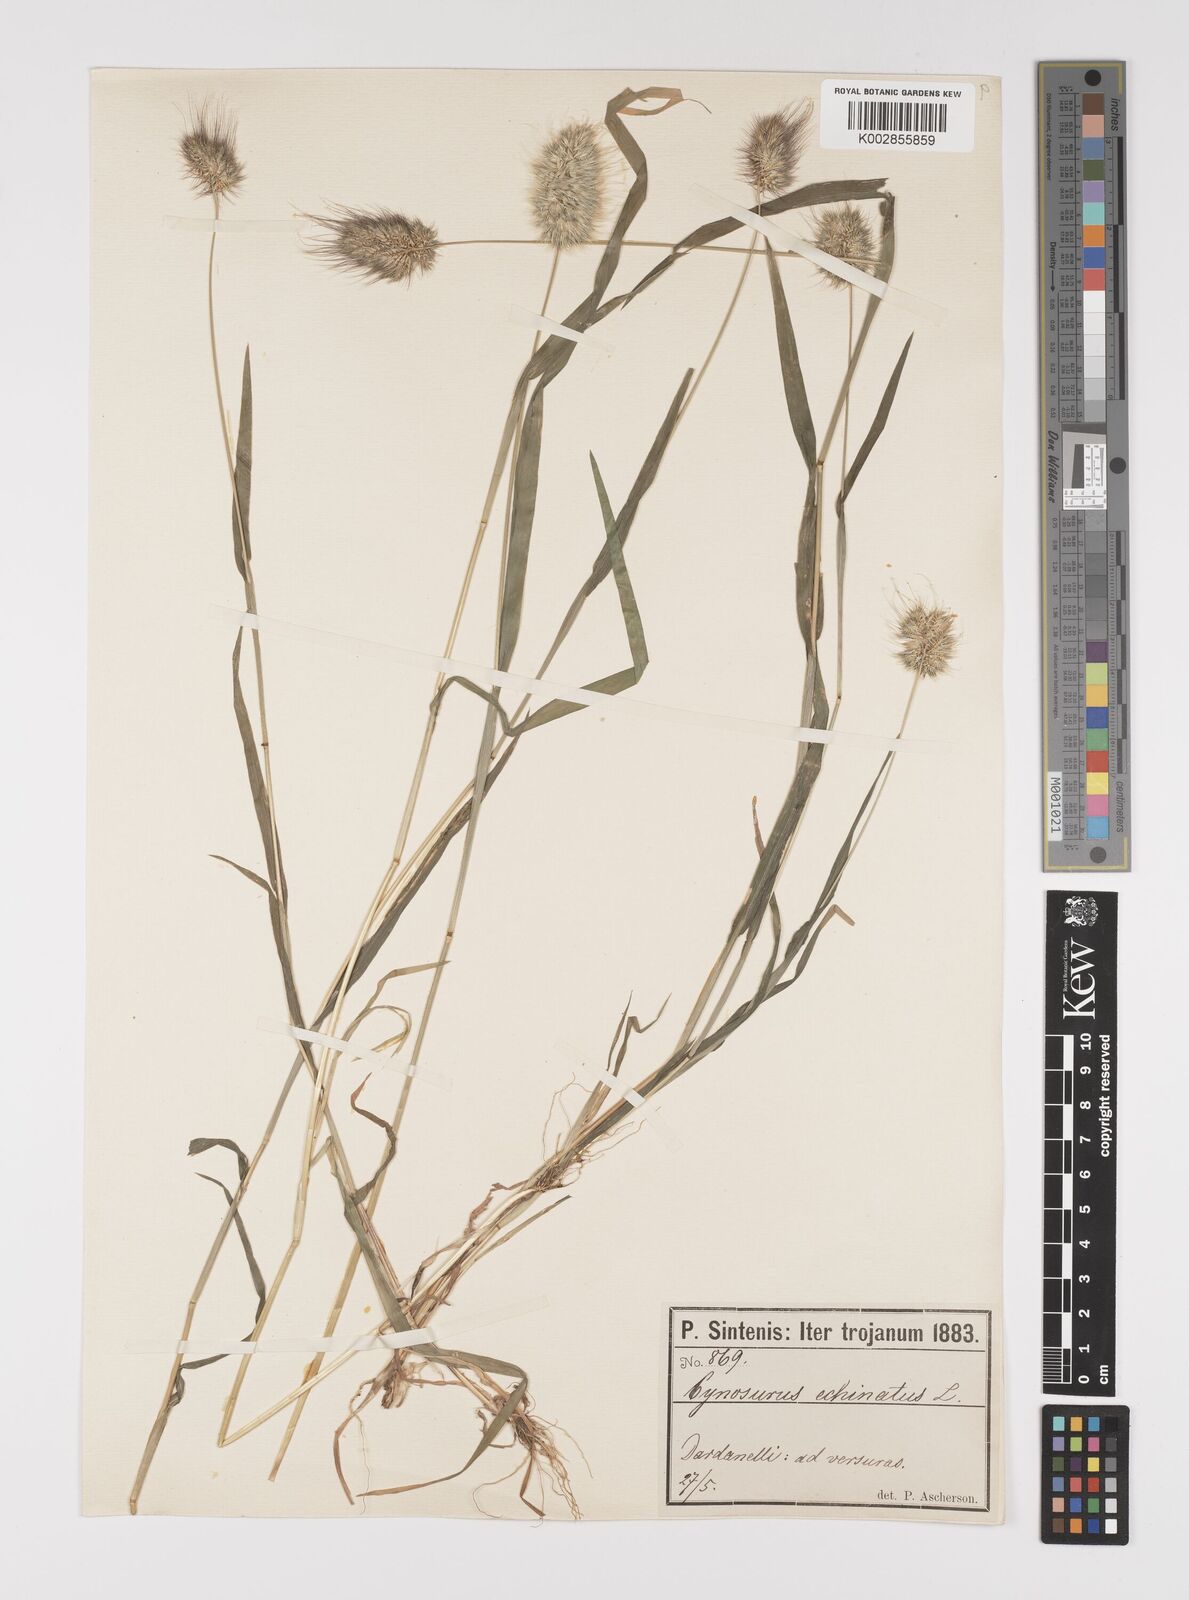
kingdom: Plantae
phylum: Tracheophyta
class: Liliopsida
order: Poales
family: Poaceae
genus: Cynosurus
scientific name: Cynosurus echinatus
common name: Rough dog's-tail
